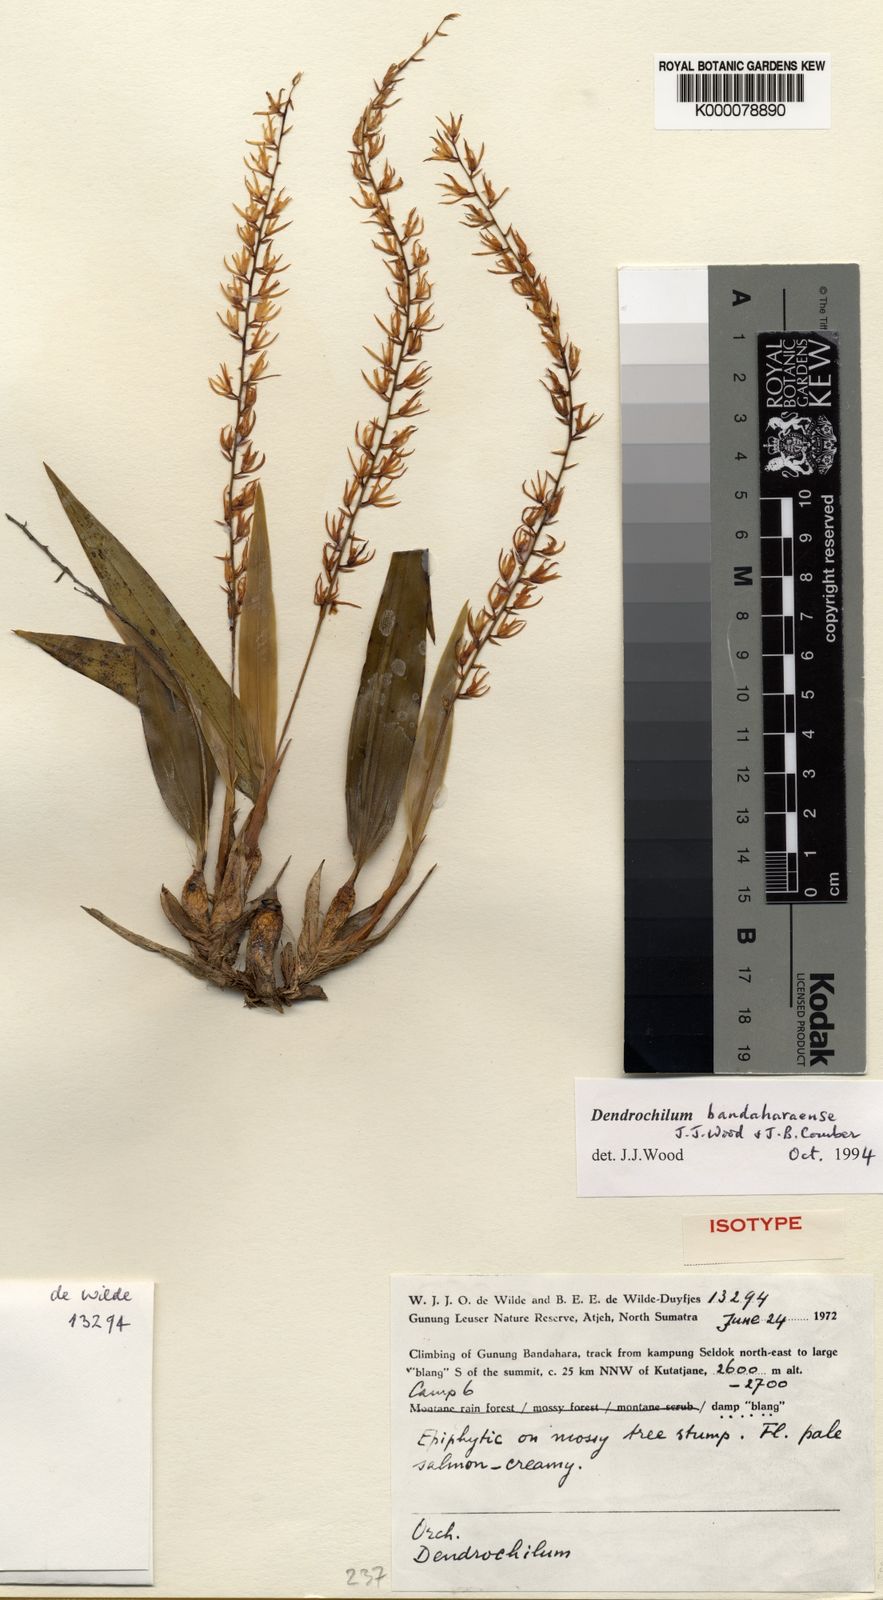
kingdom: Plantae
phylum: Tracheophyta
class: Liliopsida
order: Asparagales
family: Orchidaceae
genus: Coelogyne
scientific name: Coelogyne bandaharaensis
